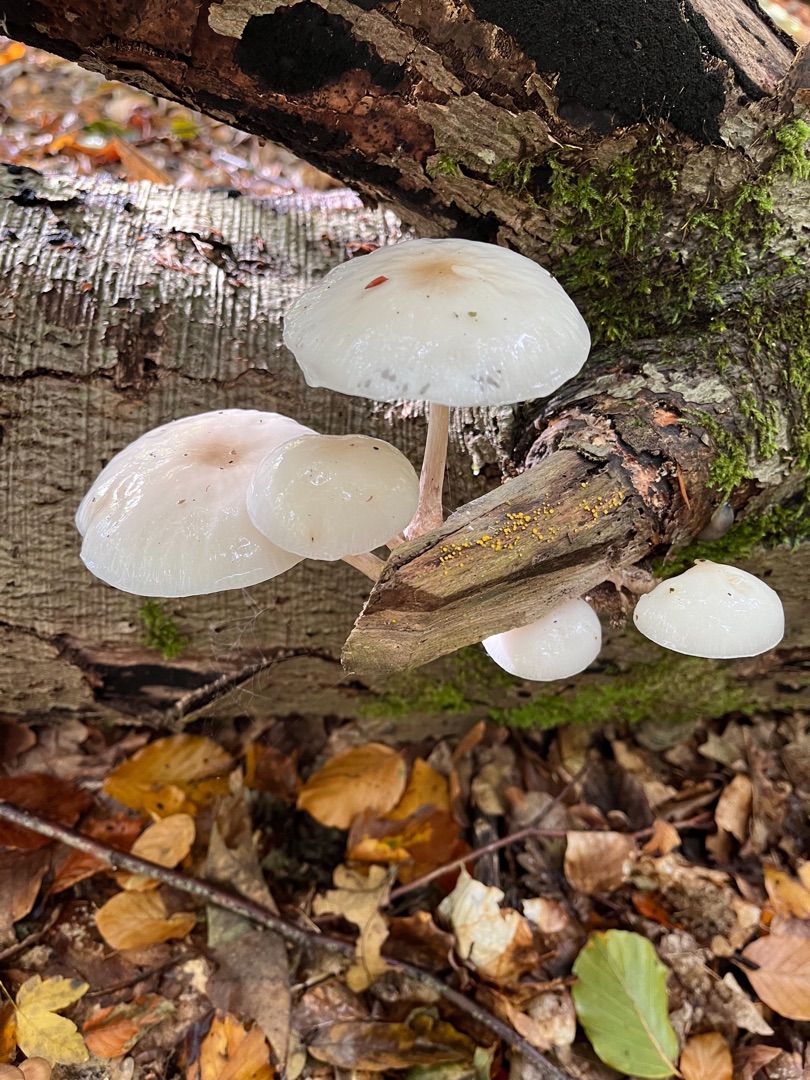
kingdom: Fungi
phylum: Basidiomycota
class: Agaricomycetes
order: Agaricales
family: Physalacriaceae
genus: Mucidula
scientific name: Mucidula mucida
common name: Porcelænshat
